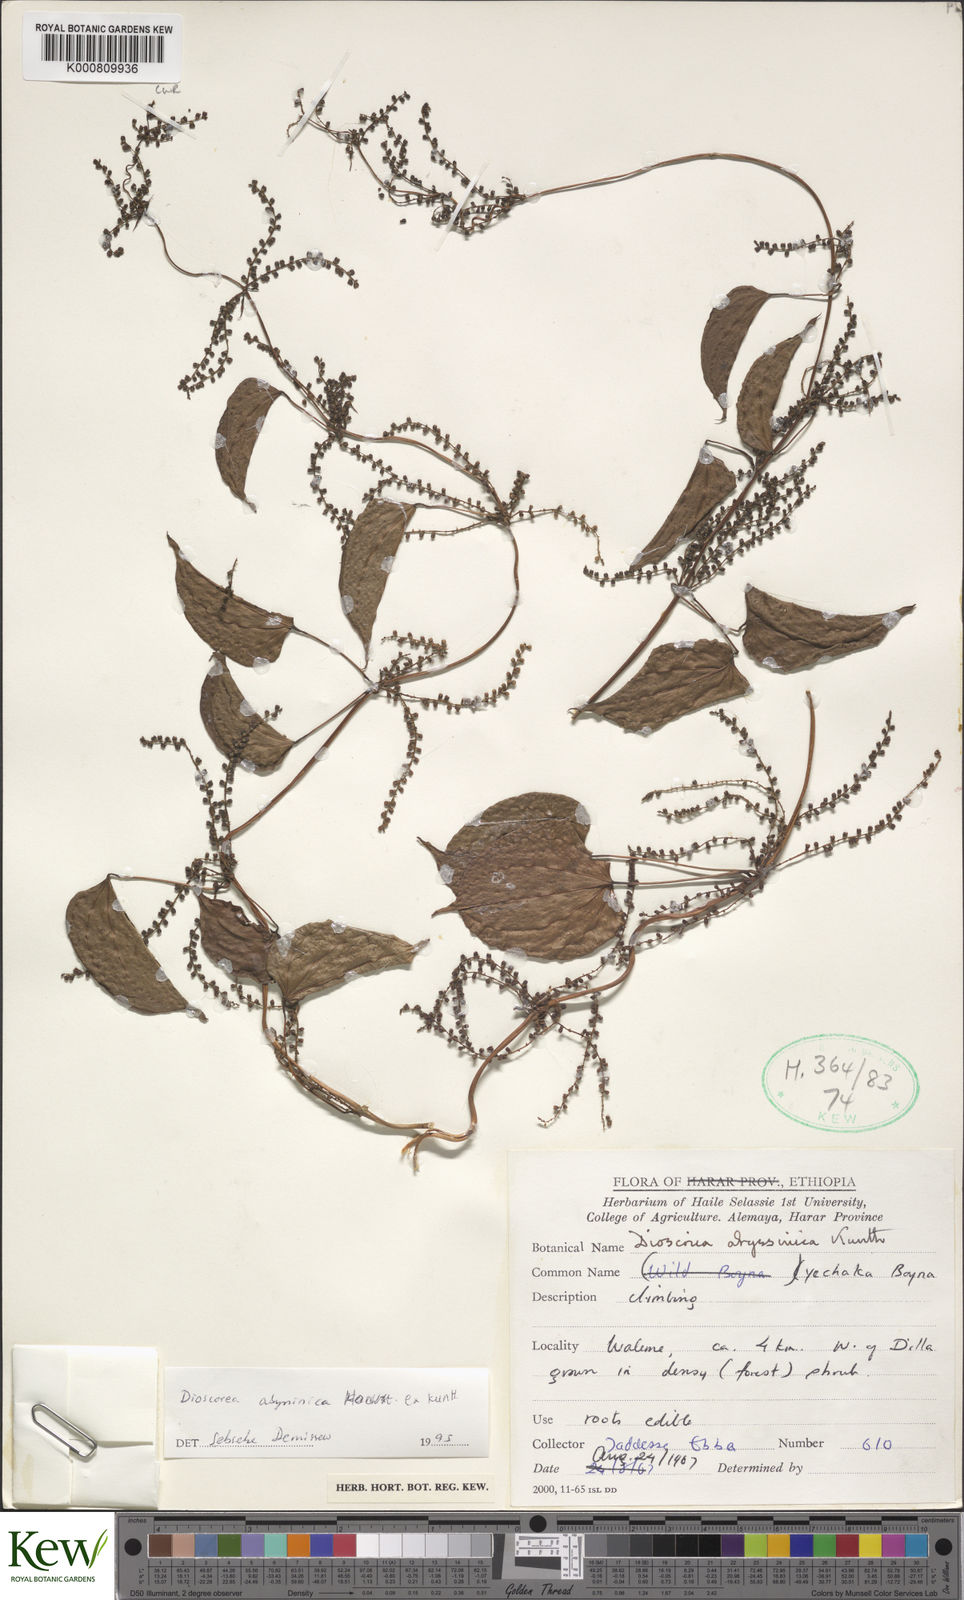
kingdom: Plantae
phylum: Tracheophyta
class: Liliopsida
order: Dioscoreales
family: Dioscoreaceae
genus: Dioscorea
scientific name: Dioscorea abyssinica
